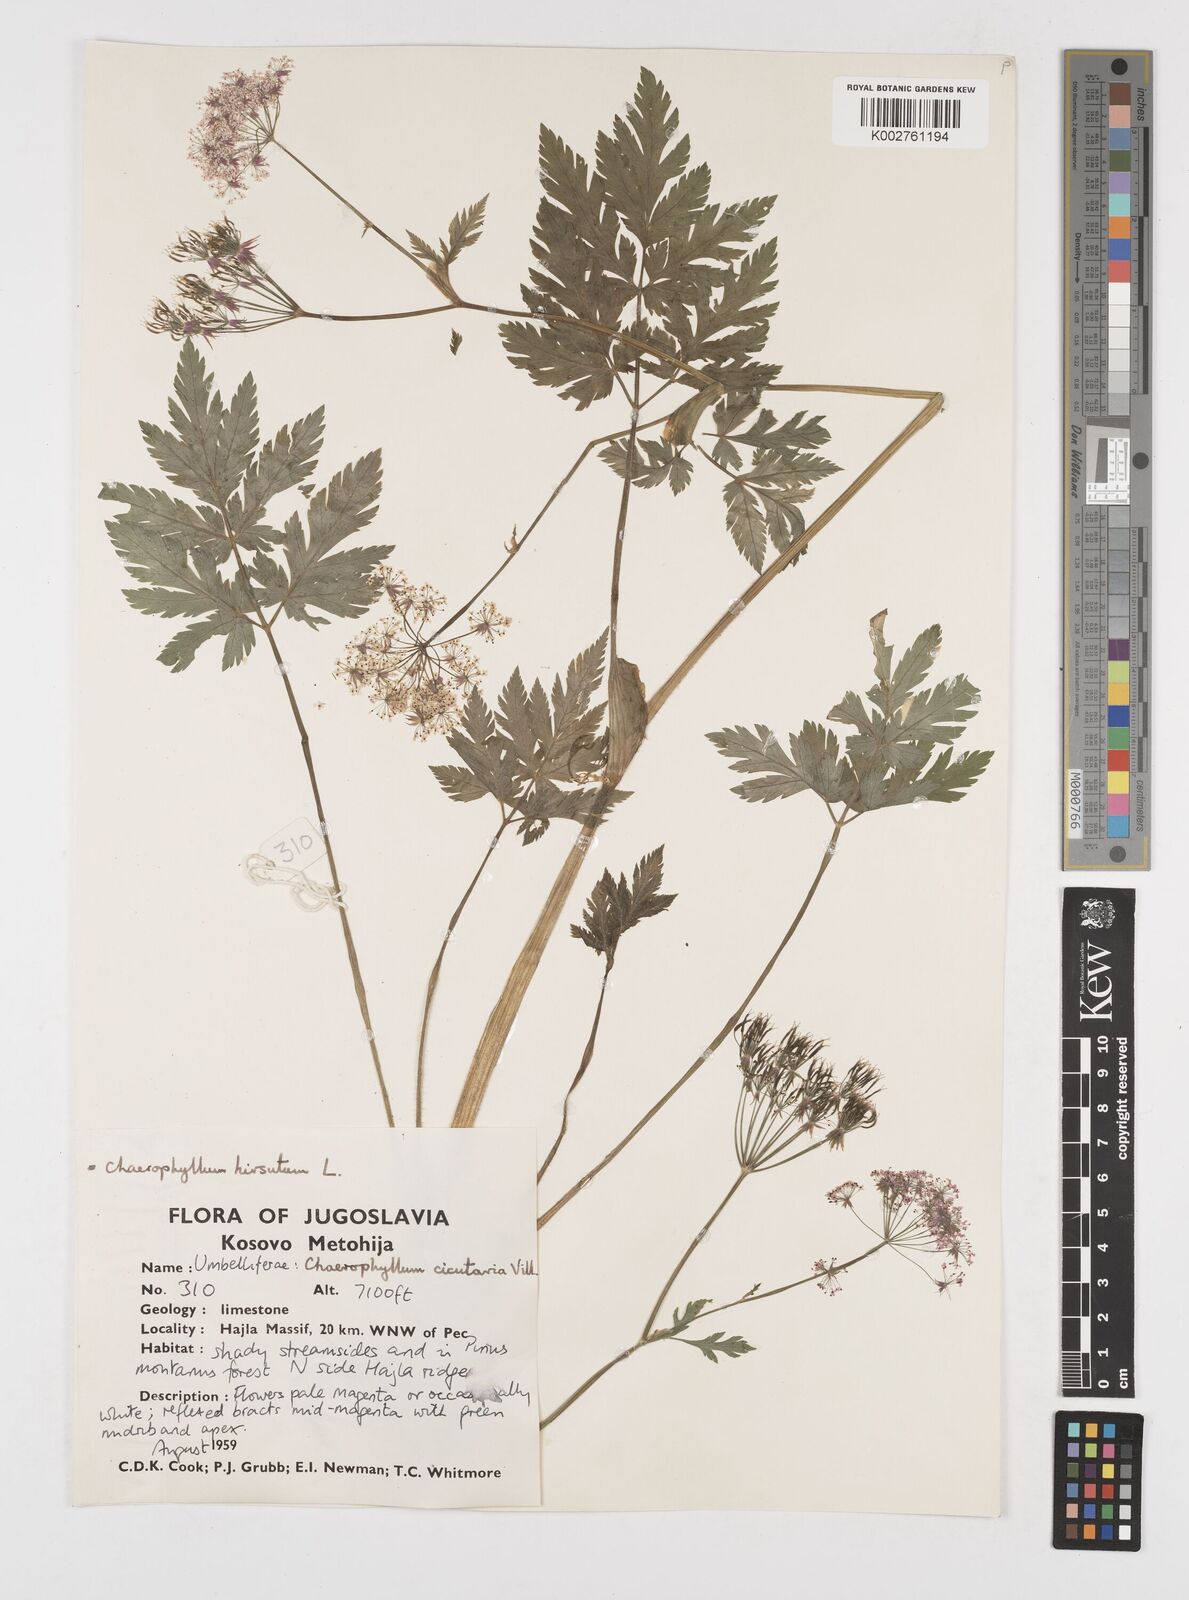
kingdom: Plantae
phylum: Tracheophyta
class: Magnoliopsida
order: Apiales
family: Apiaceae
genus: Chaerophyllum
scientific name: Chaerophyllum hirsutum
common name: Hairy chervil
